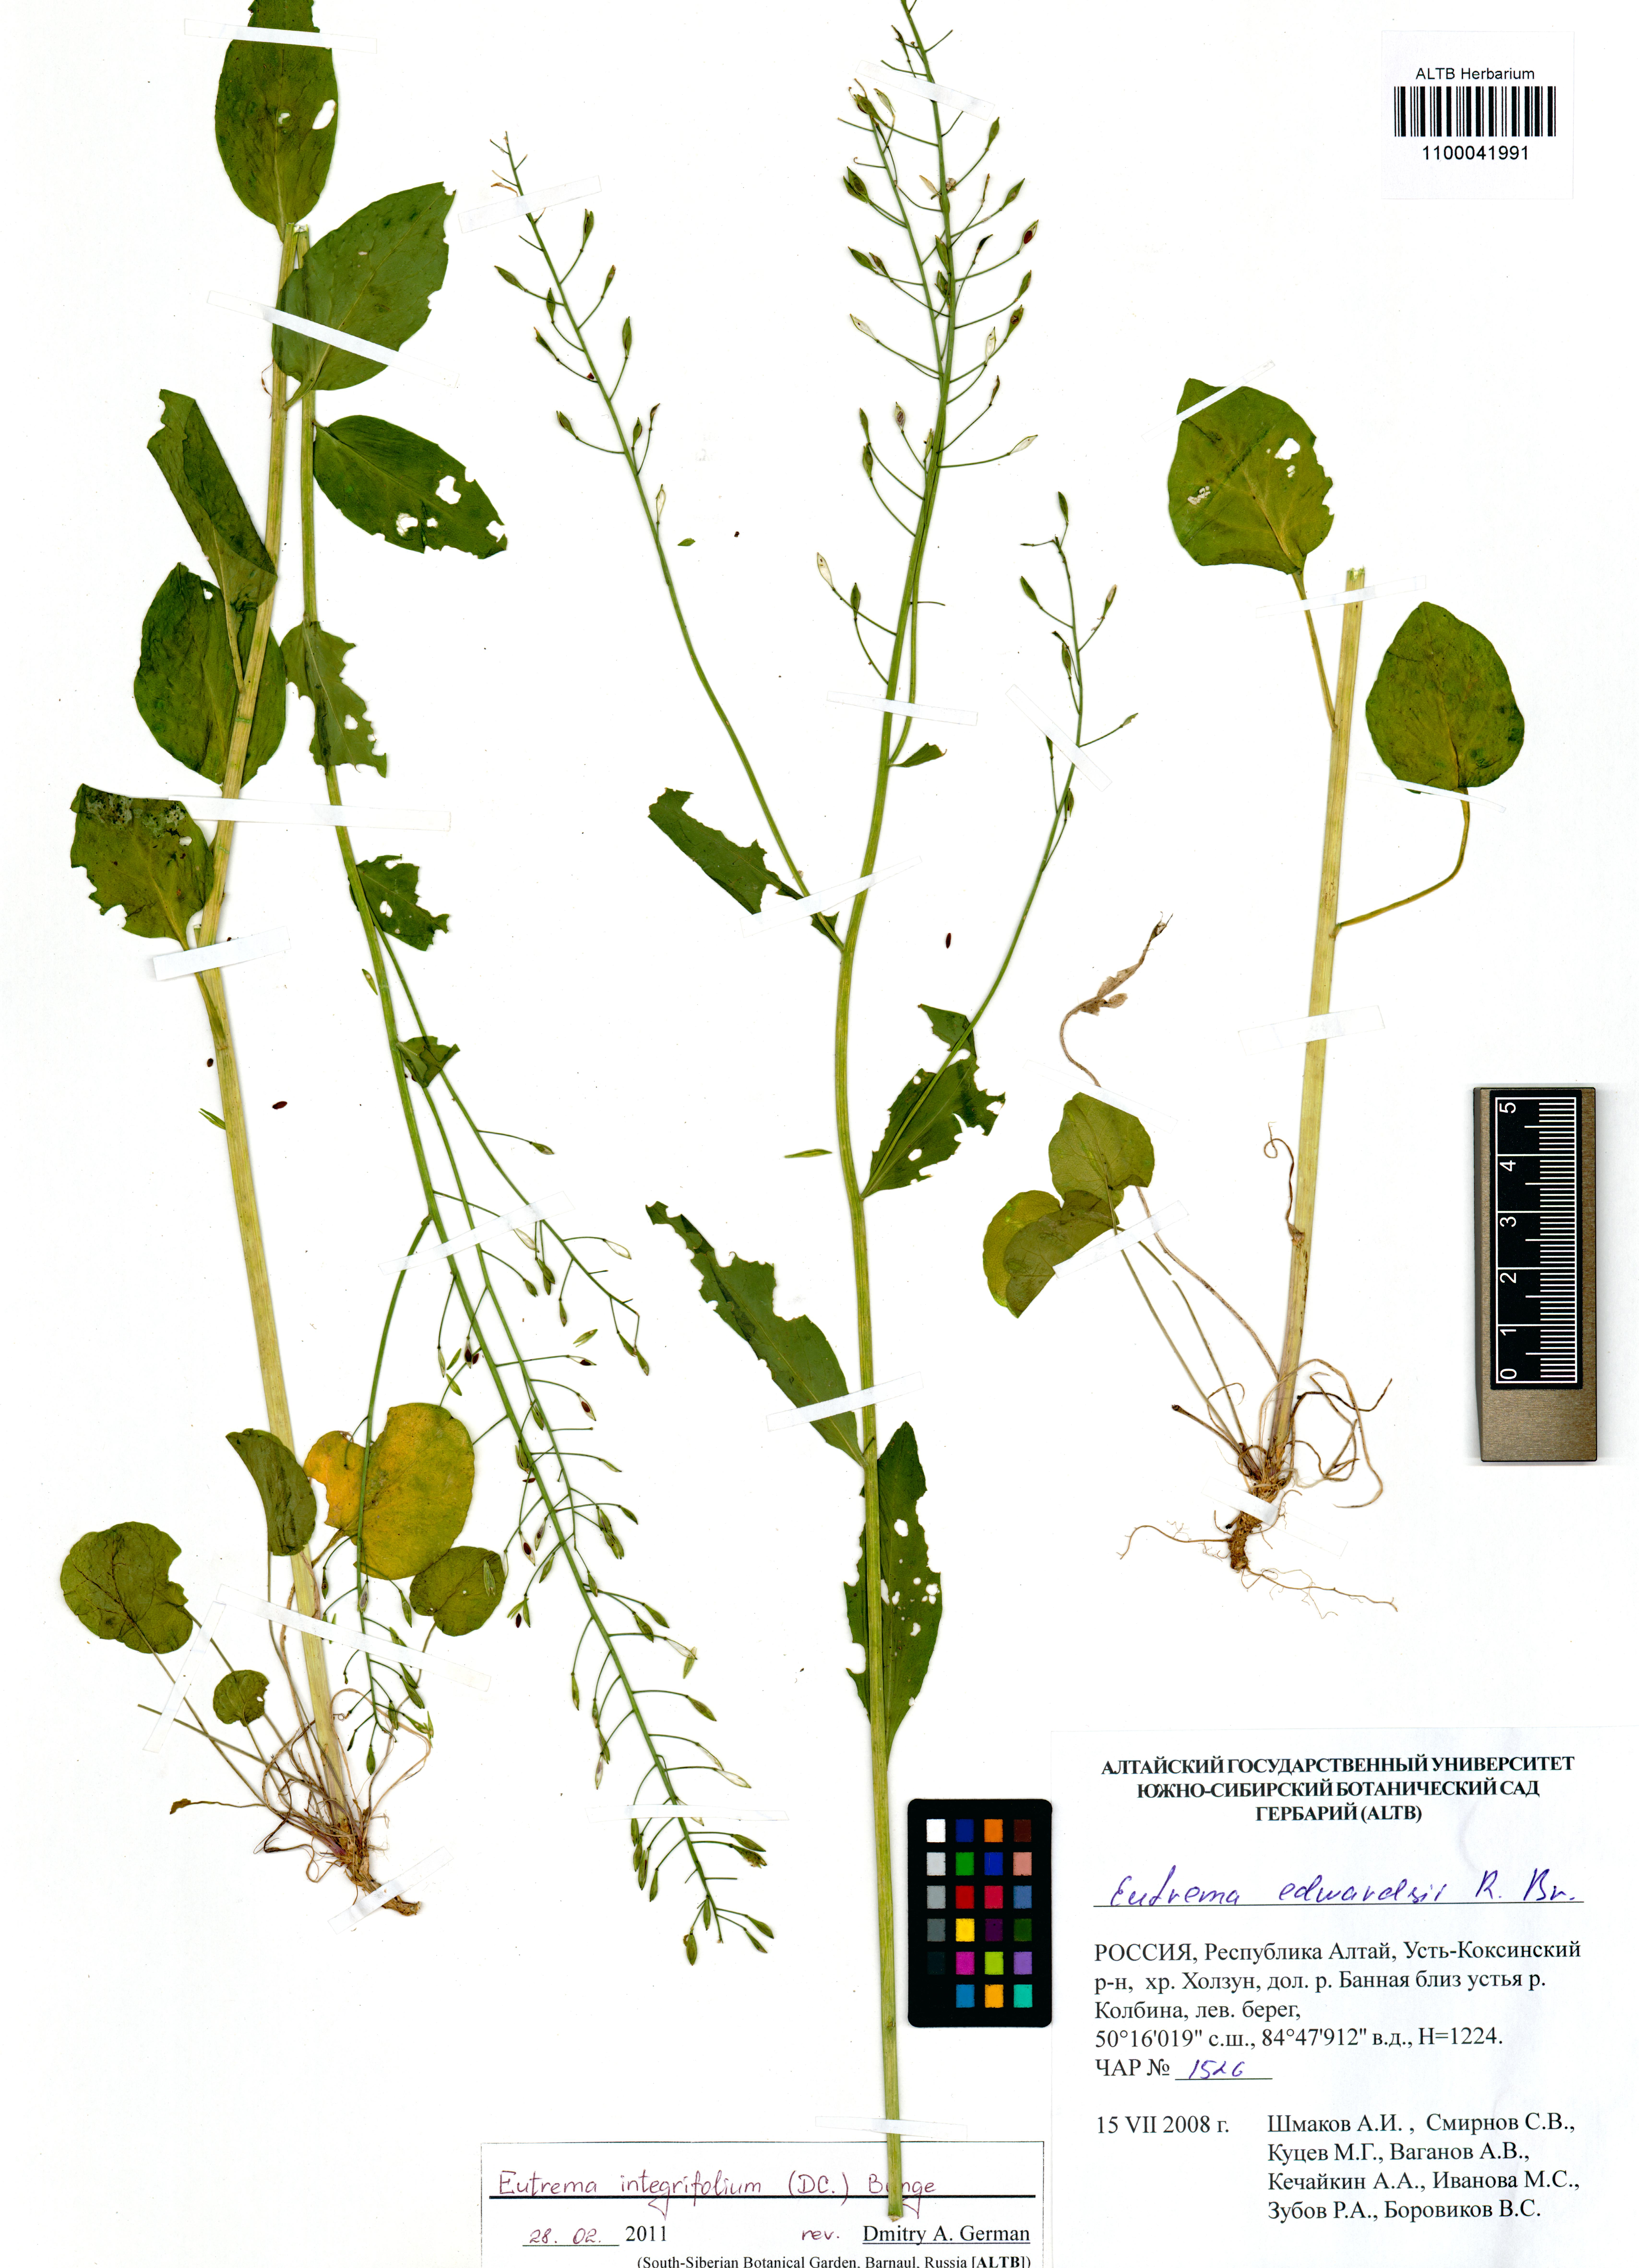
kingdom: Plantae
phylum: Tracheophyta
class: Magnoliopsida
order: Brassicales
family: Brassicaceae
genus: Eutrema
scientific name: Eutrema integrifolium
